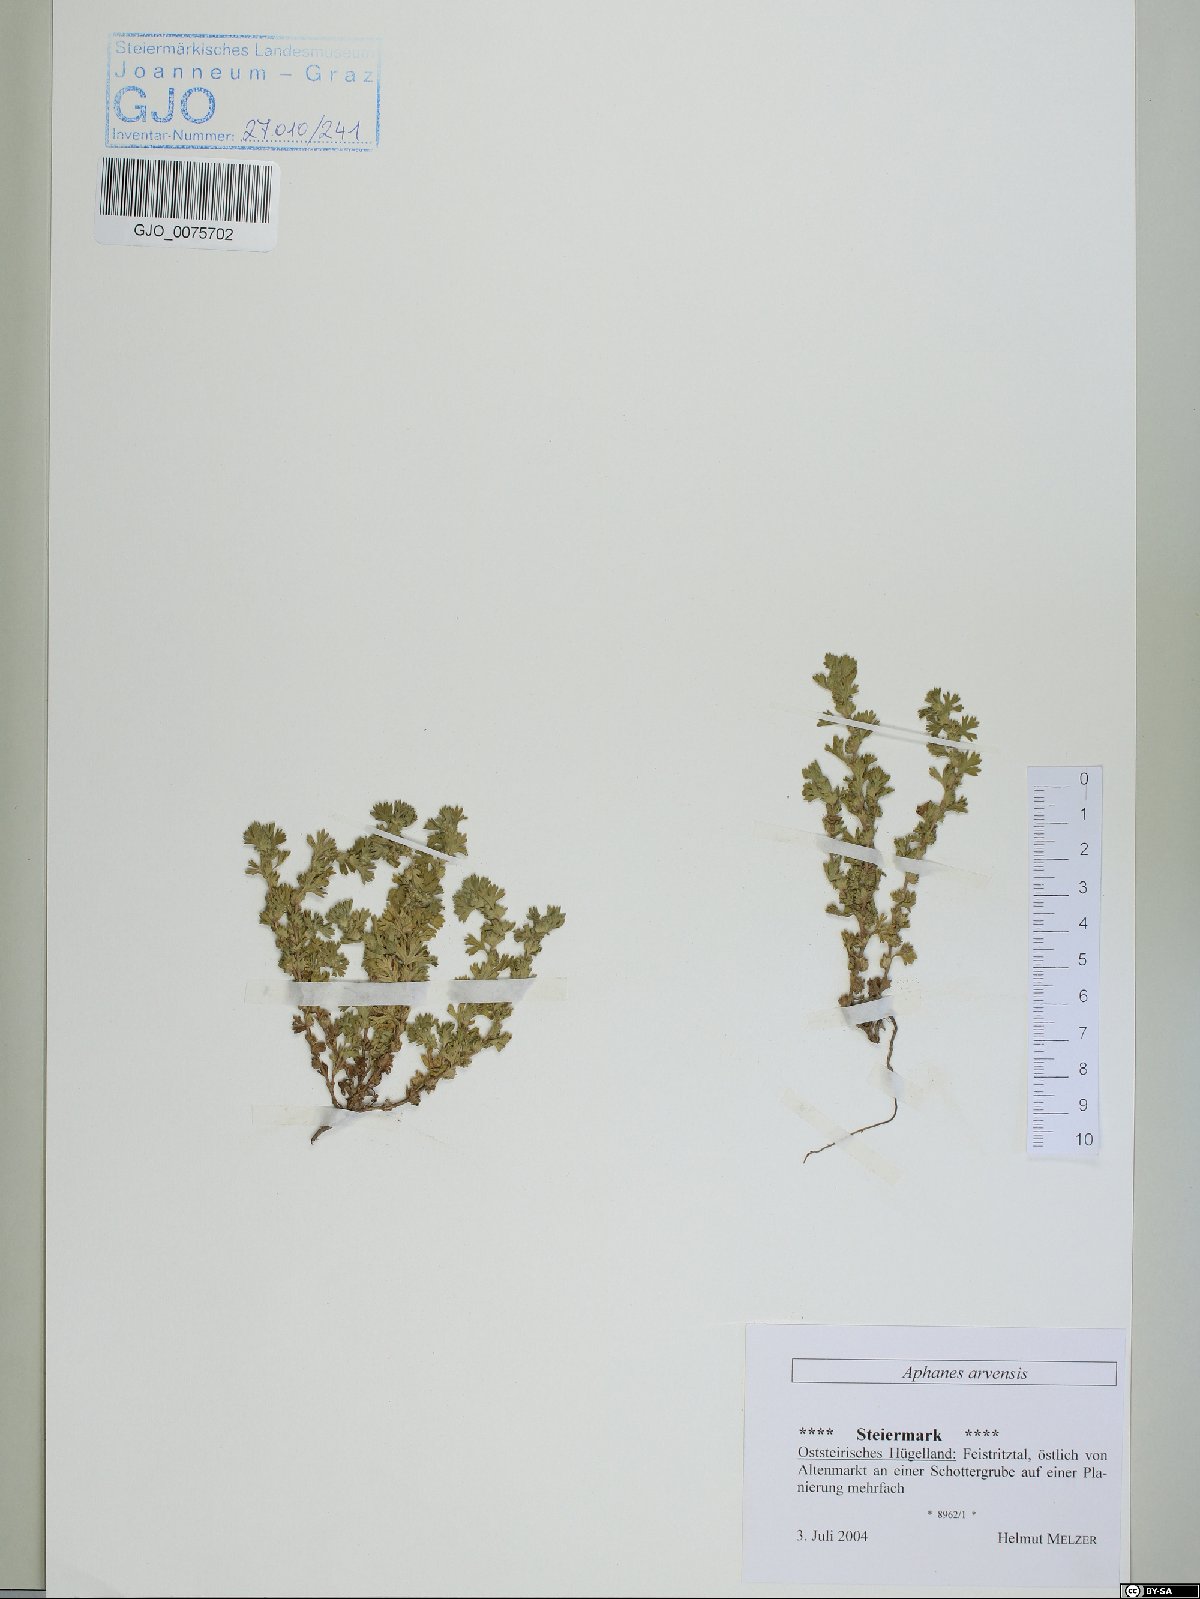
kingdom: Plantae
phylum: Tracheophyta
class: Magnoliopsida
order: Rosales
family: Rosaceae
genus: Aphanes
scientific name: Aphanes arvensis
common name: Parsley-piert
